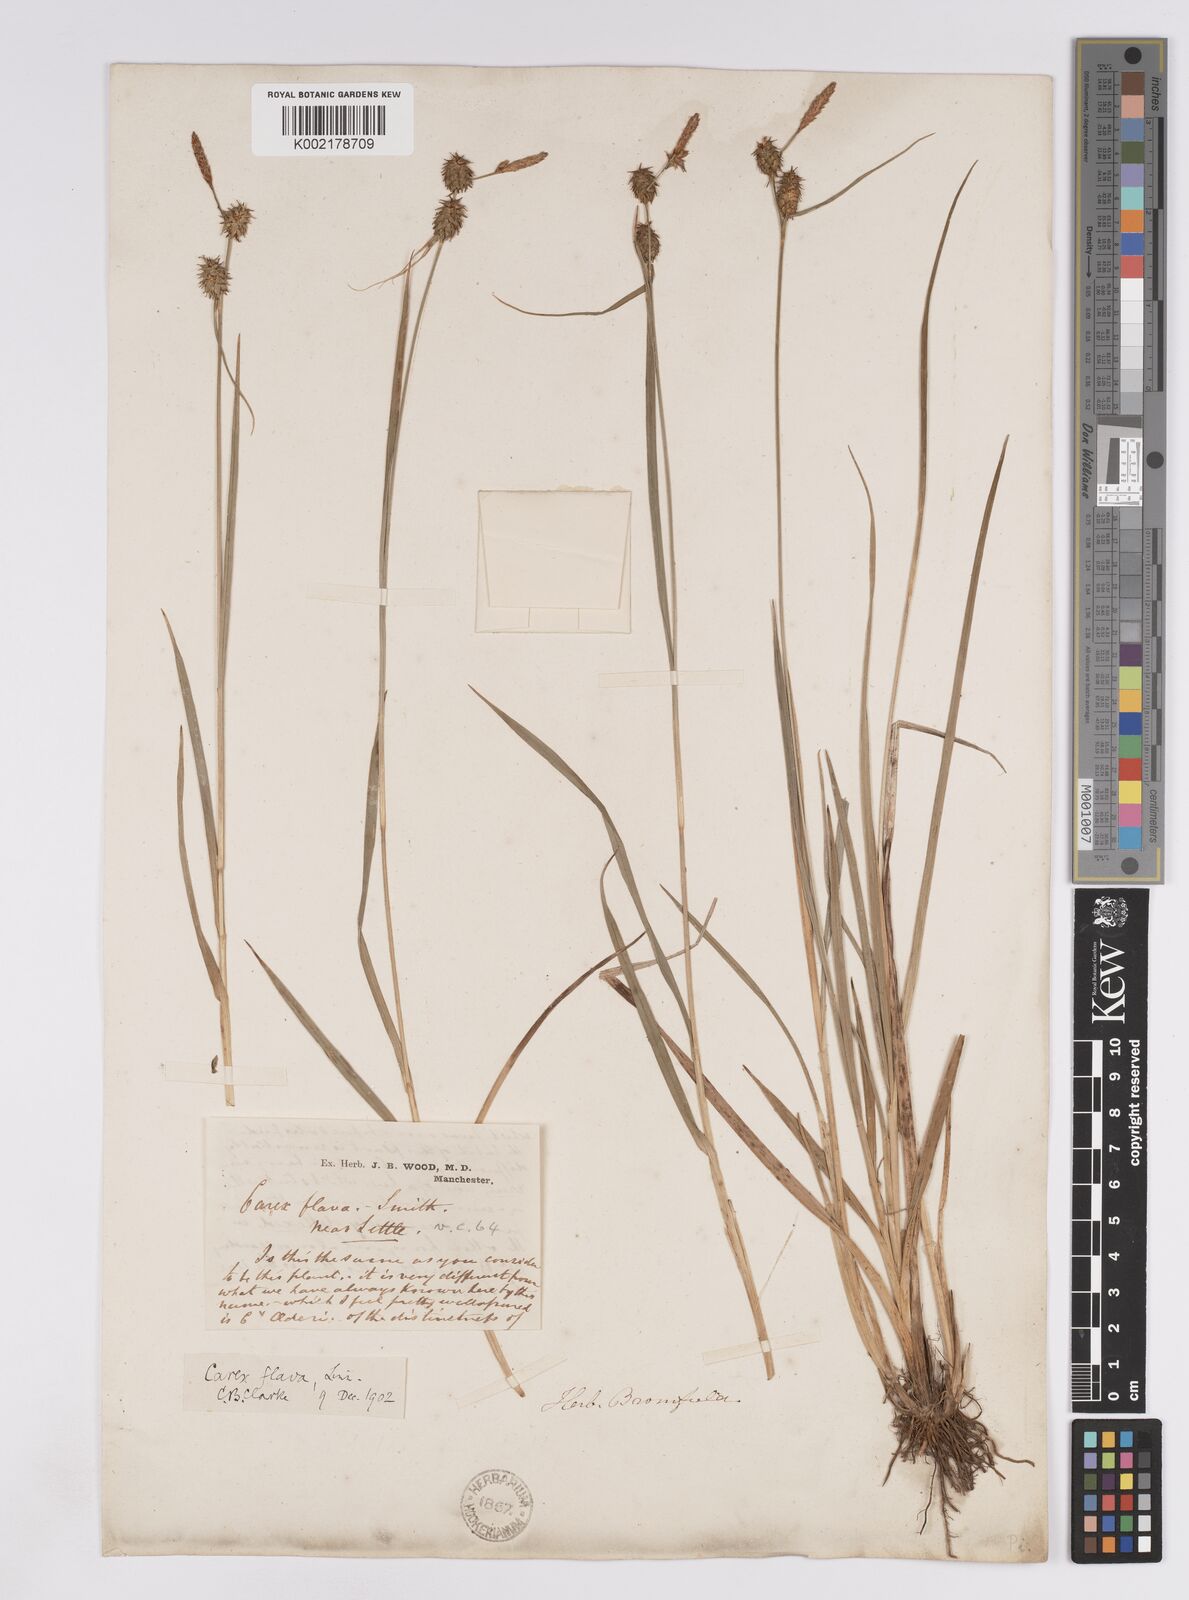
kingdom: Plantae
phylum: Tracheophyta
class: Liliopsida
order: Poales
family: Cyperaceae
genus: Carex
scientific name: Carex lepidocarpa
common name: Long-stalked yellow-sedge
